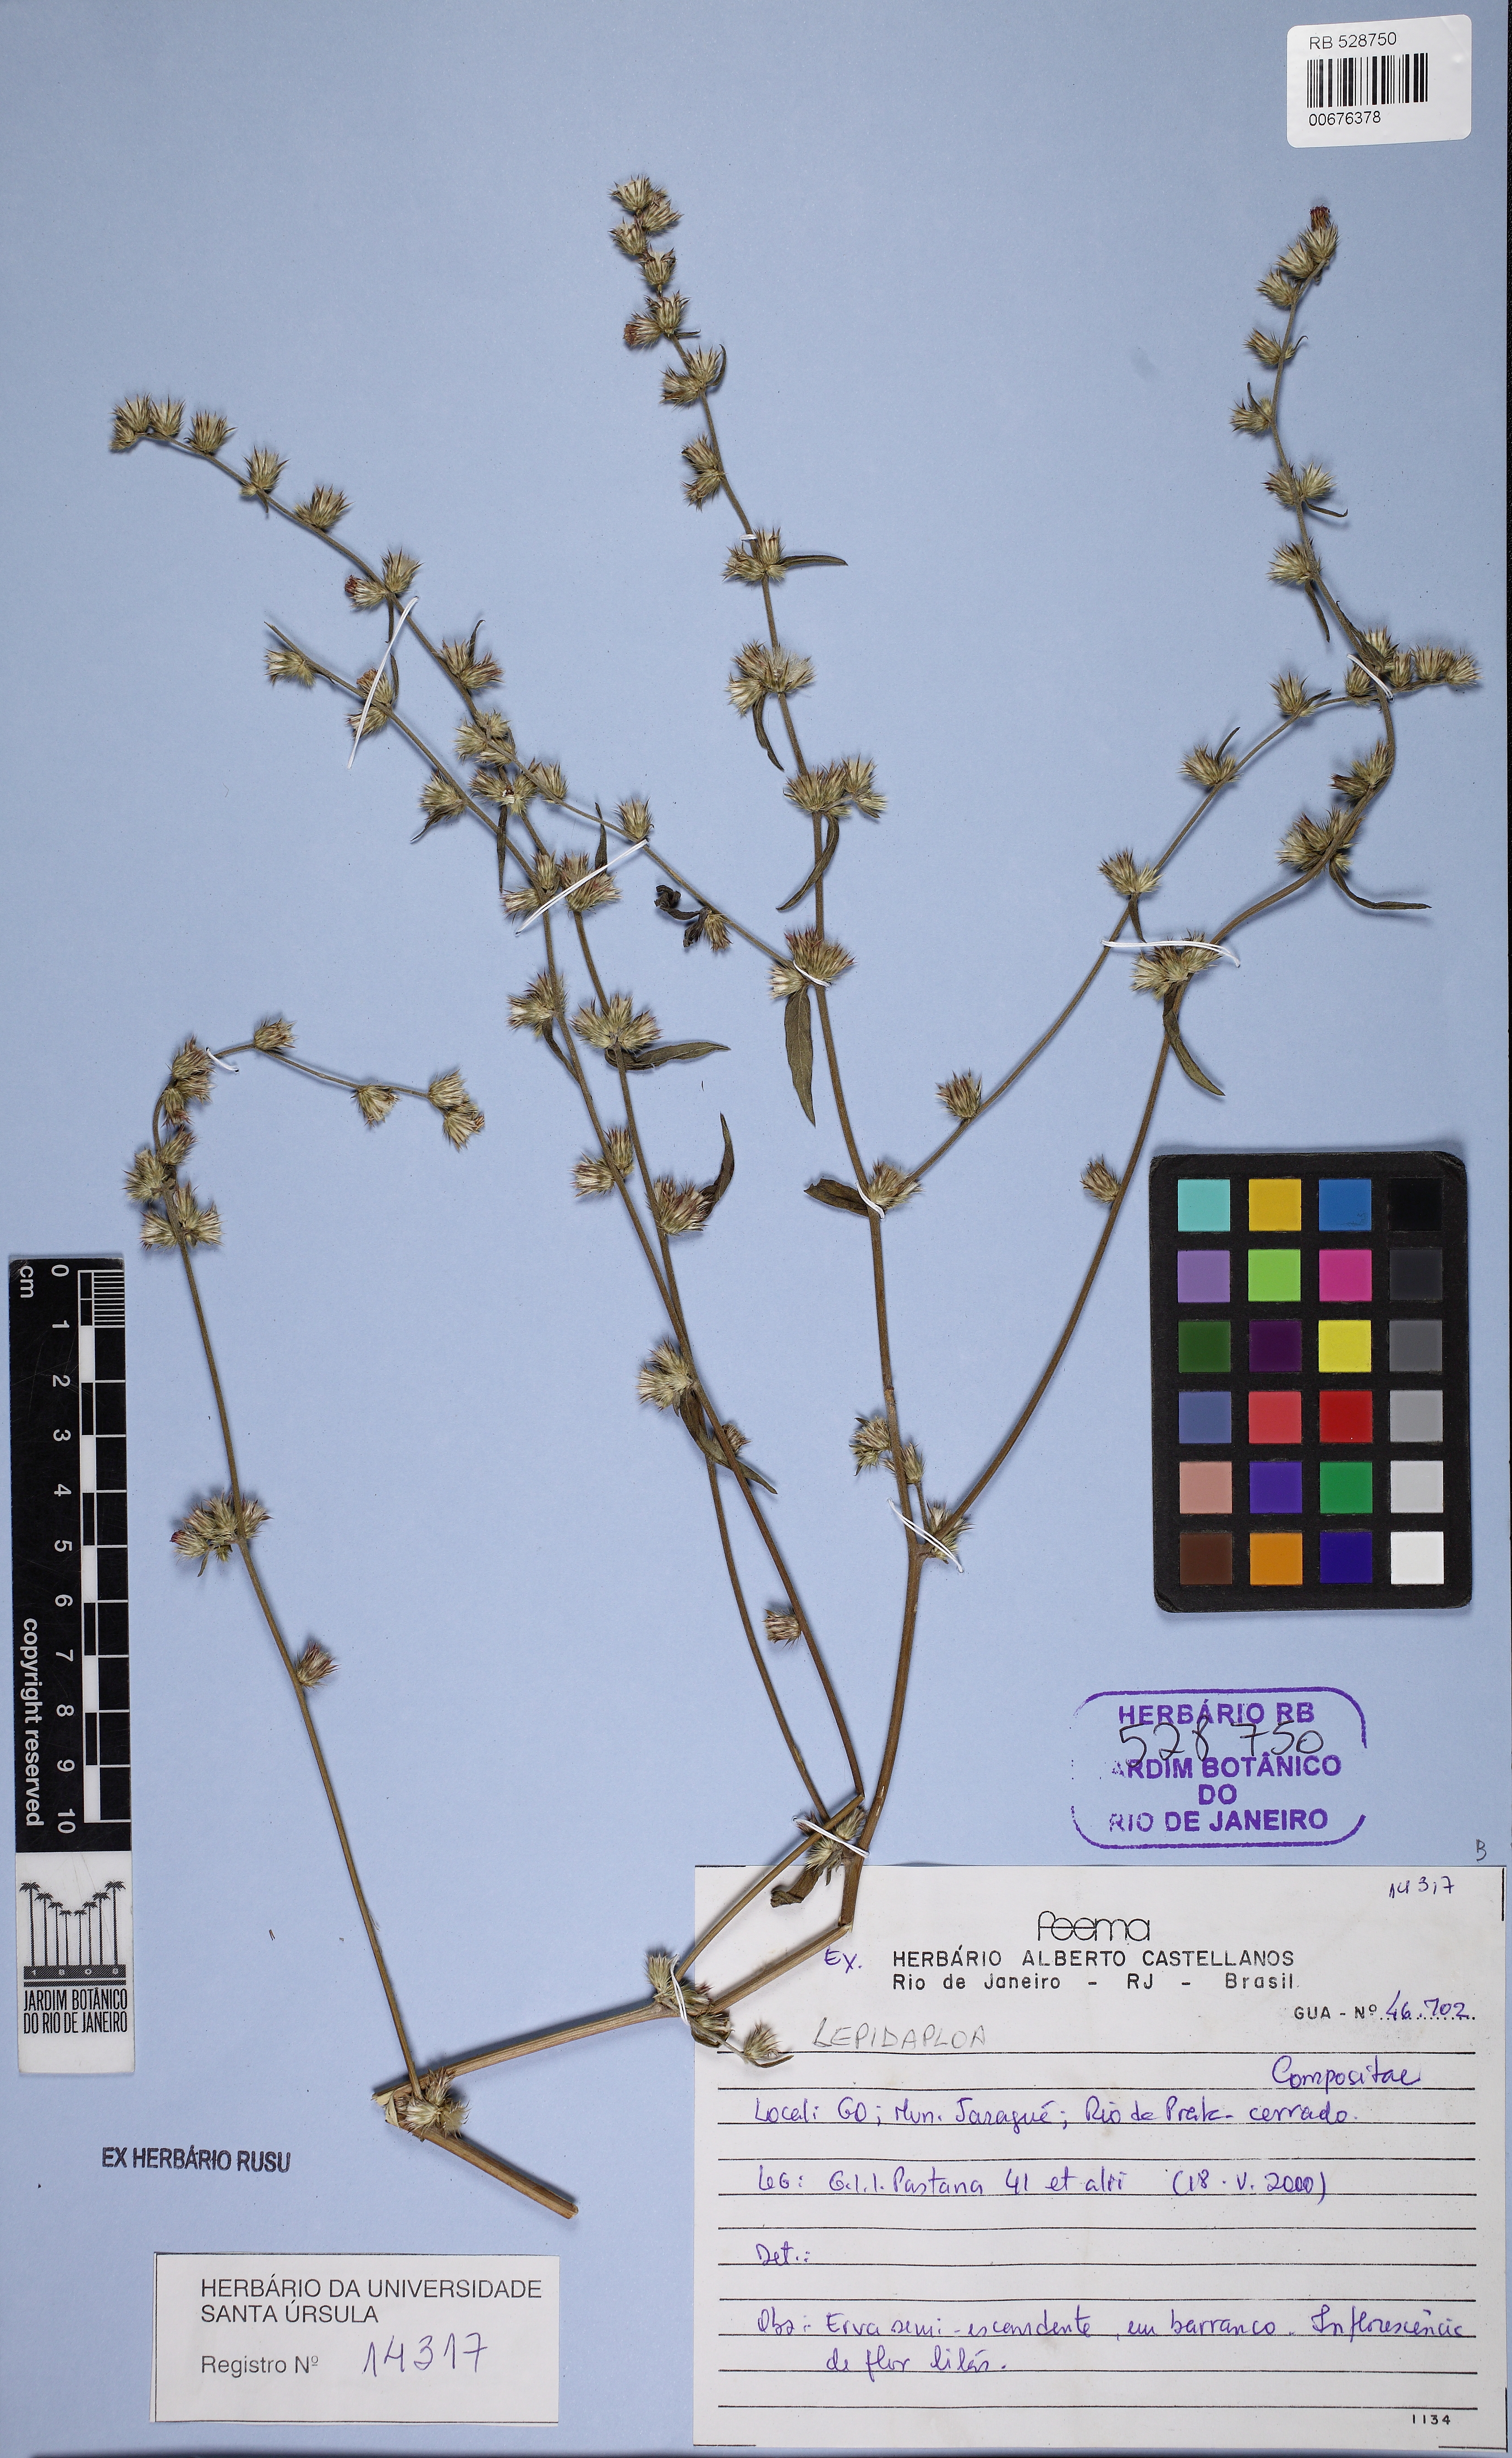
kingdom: Plantae
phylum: Tracheophyta
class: Magnoliopsida
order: Asterales
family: Asteraceae
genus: Lepidaploa
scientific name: Lepidaploa
